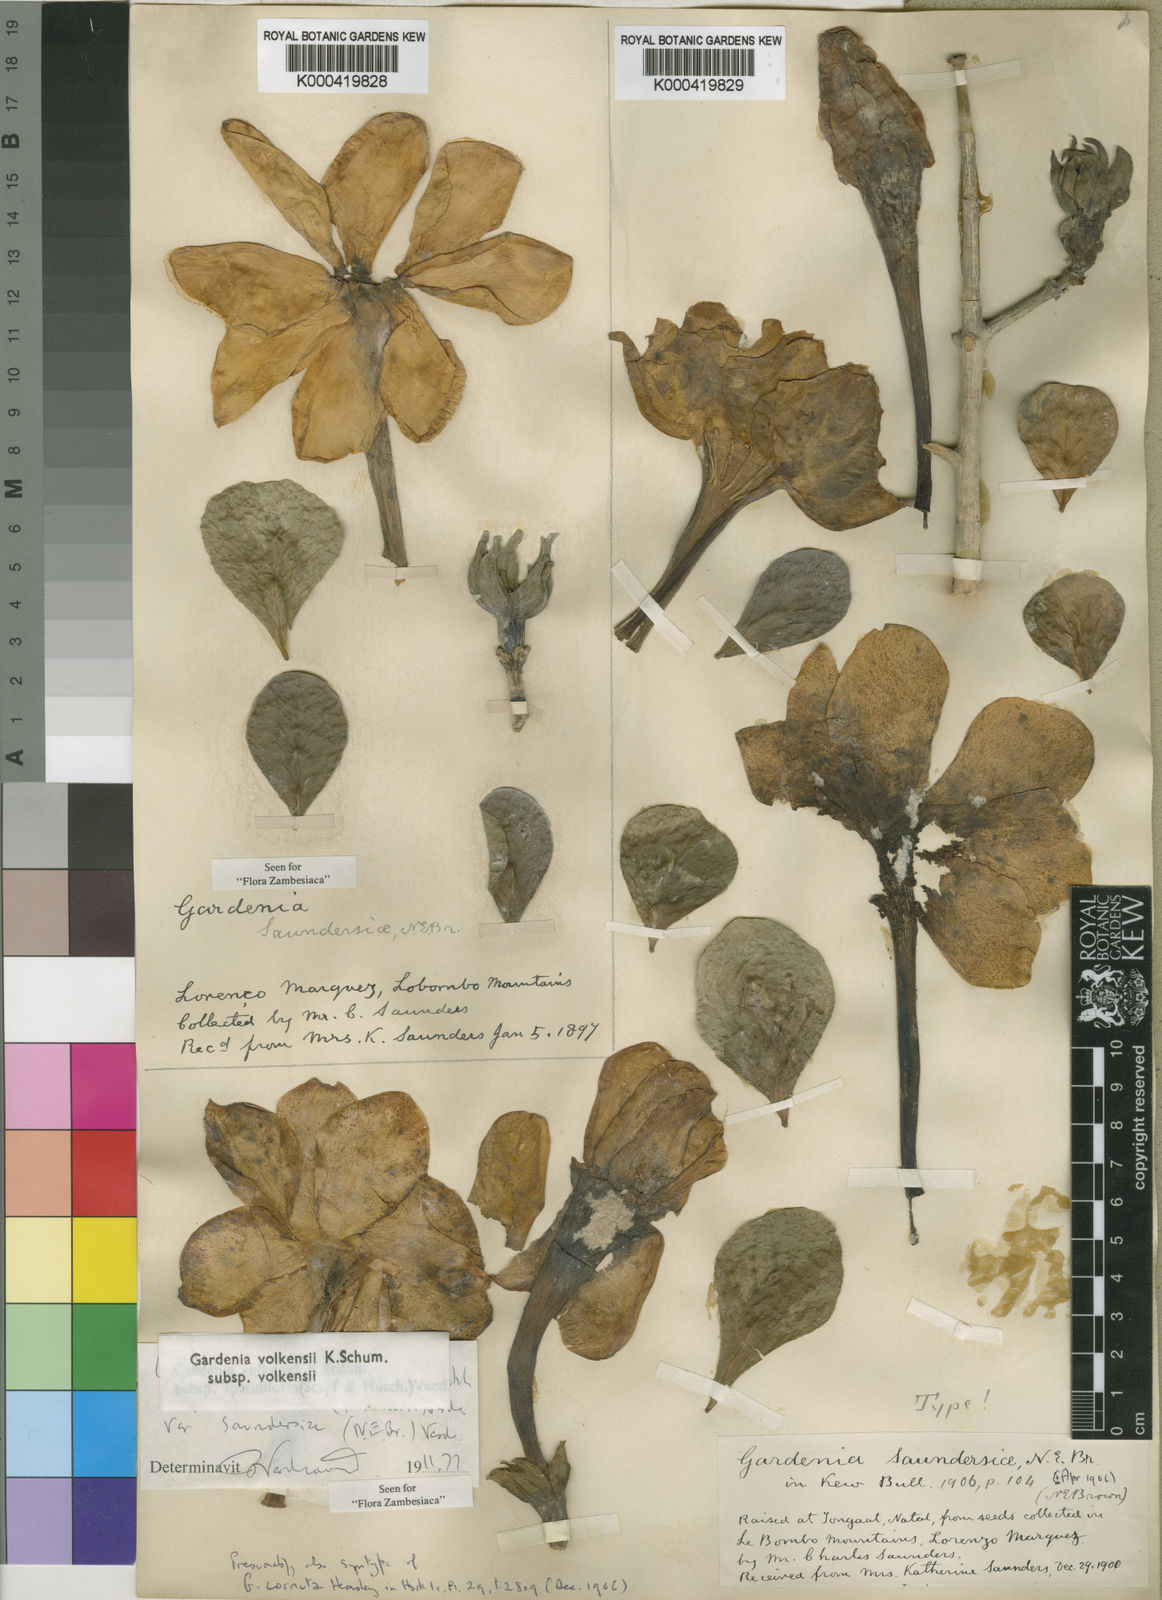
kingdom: Plantae
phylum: Tracheophyta
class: Magnoliopsida
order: Gentianales
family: Rubiaceae
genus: Gardenia
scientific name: Gardenia volkensii
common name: Common gardenia
